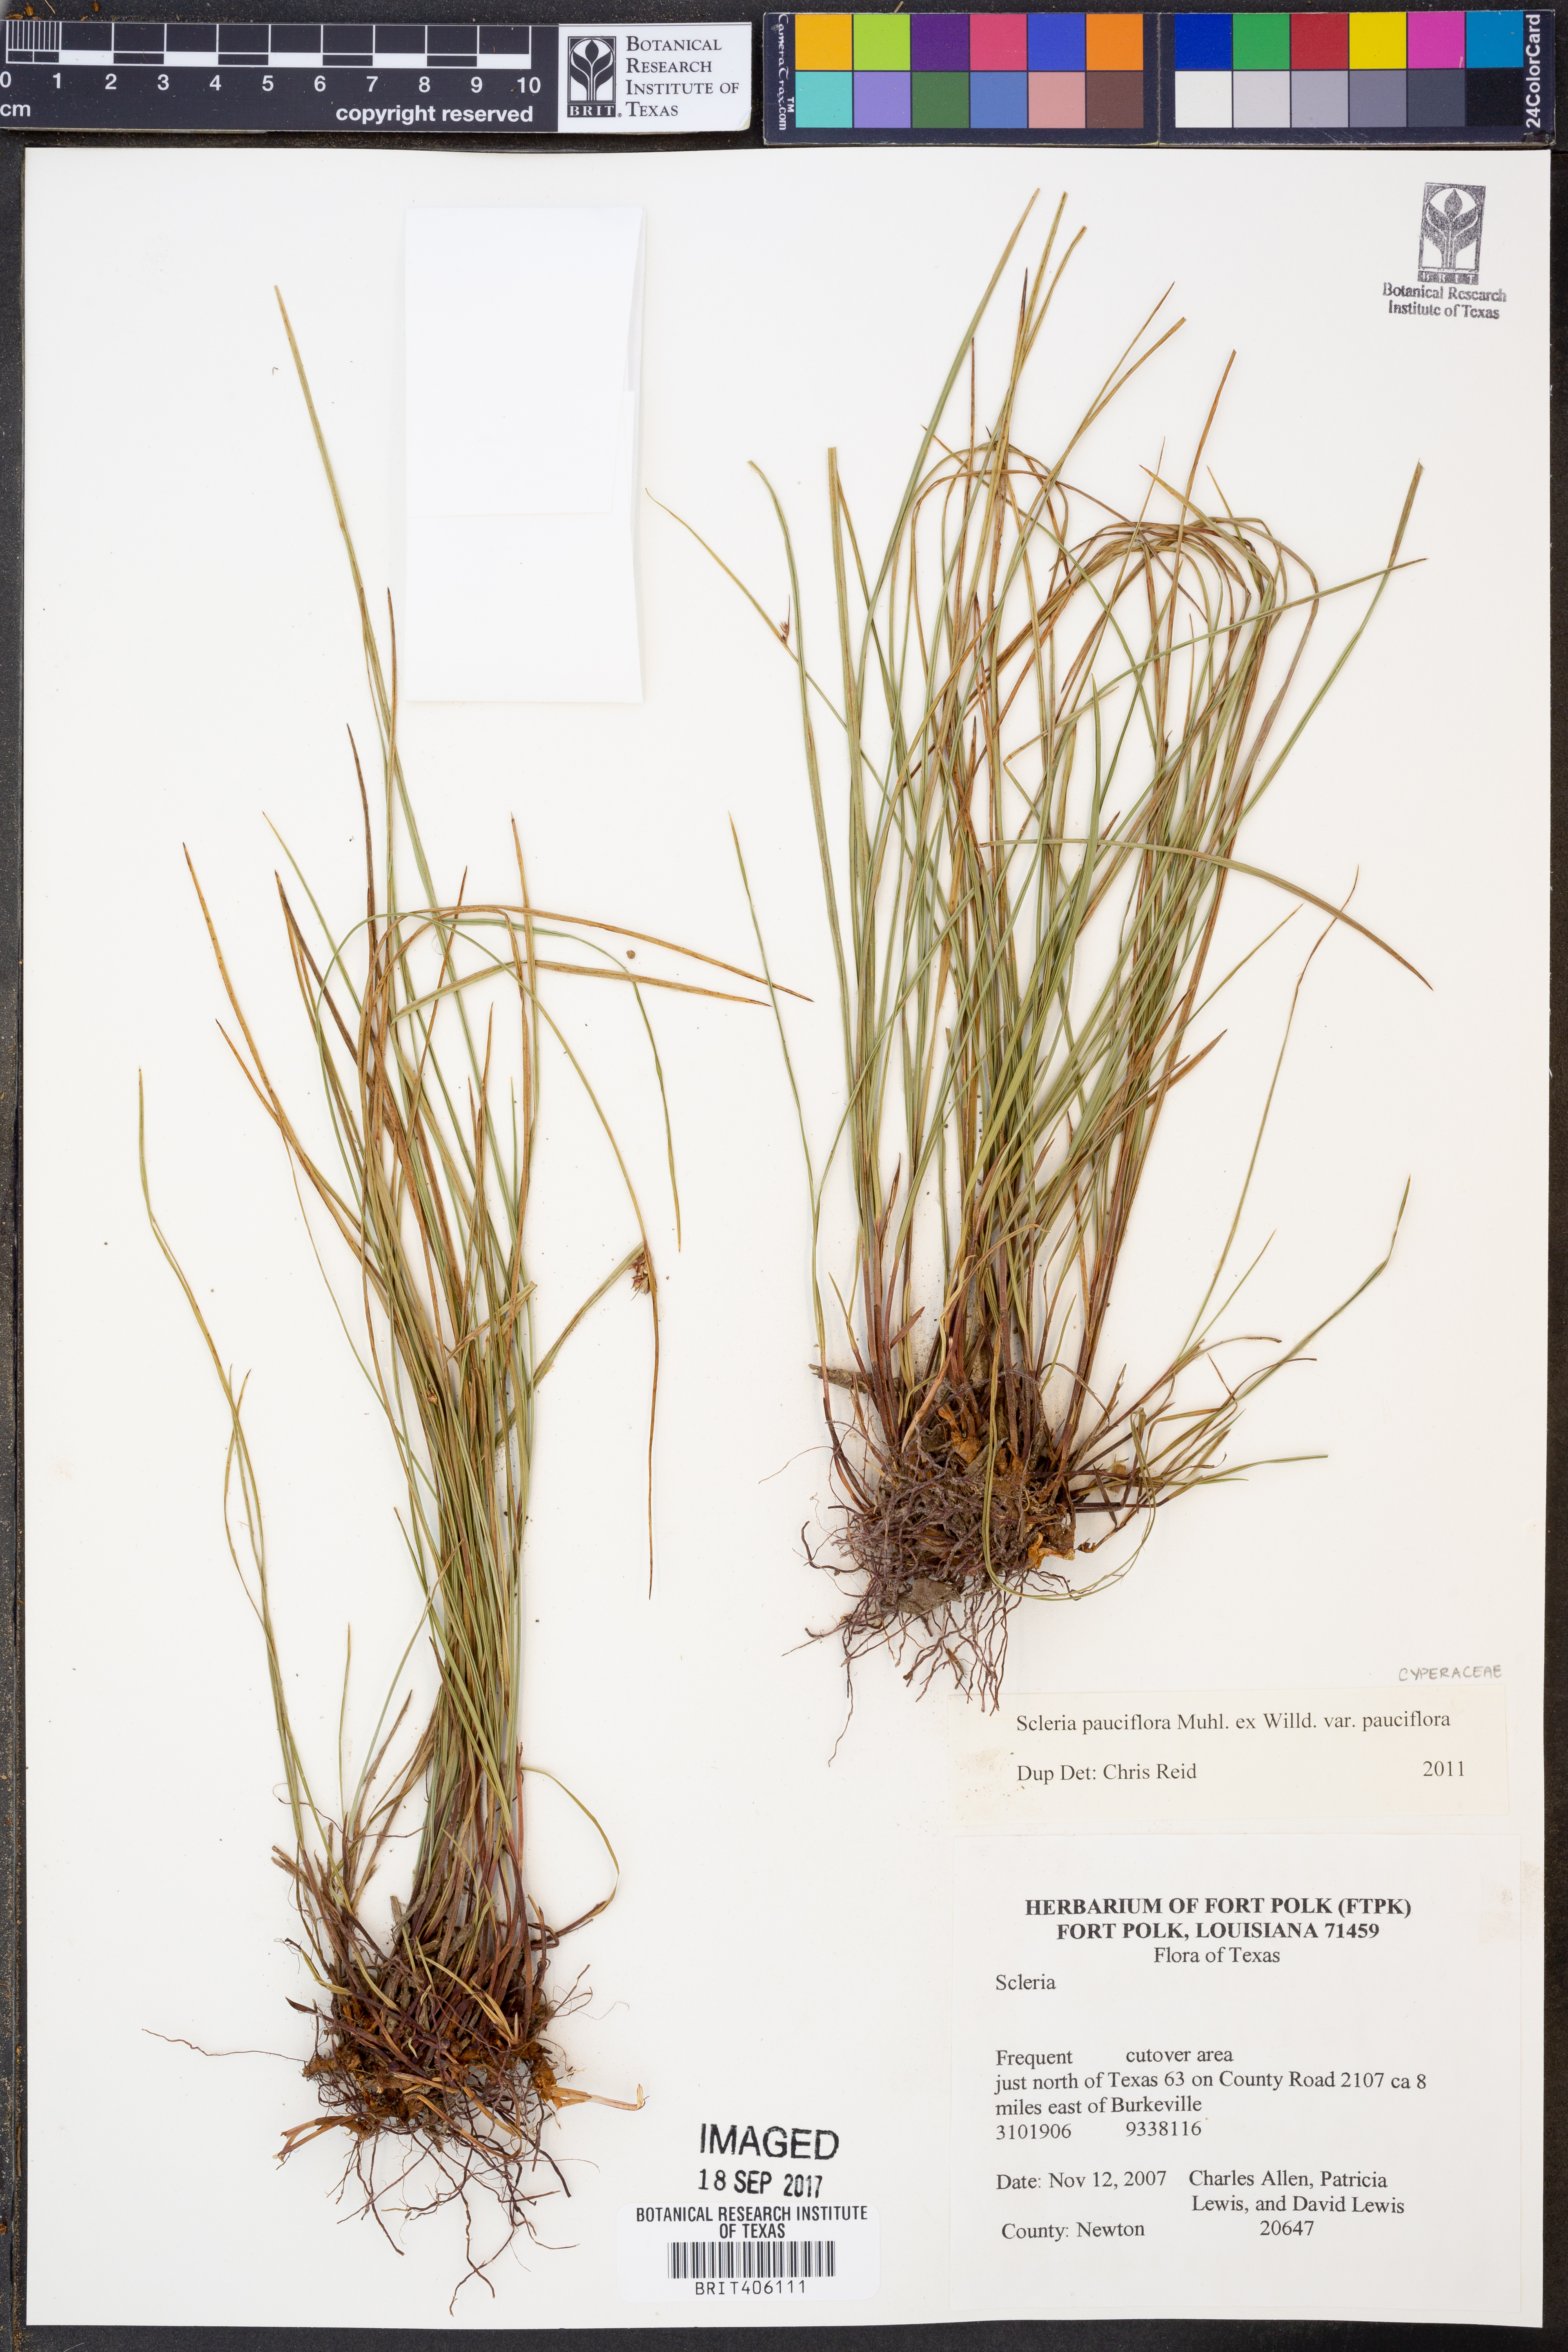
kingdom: Plantae
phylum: Tracheophyta
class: Liliopsida
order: Poales
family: Cyperaceae
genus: Scleria
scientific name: Scleria pauciflora
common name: Few-flowered nutrush
